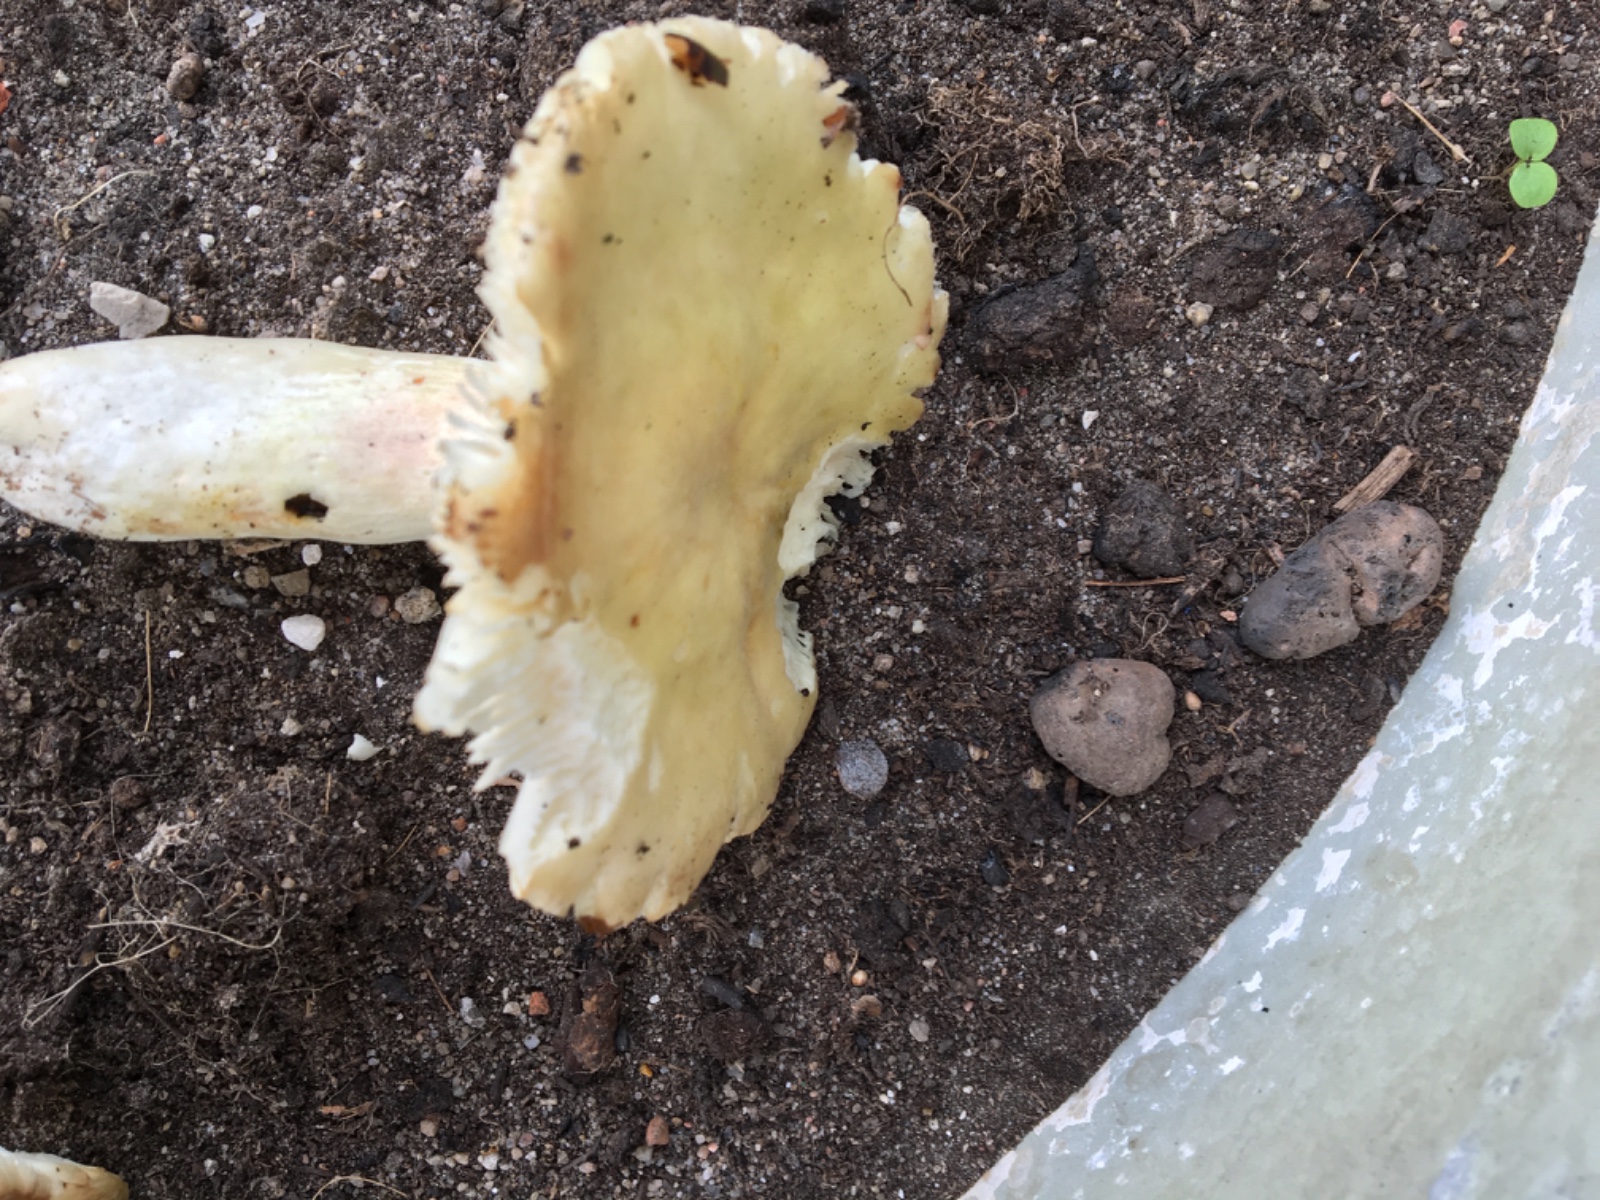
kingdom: Fungi
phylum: Basidiomycota
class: Agaricomycetes
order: Russulales
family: Russulaceae
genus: Russula
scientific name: Russula violeipes
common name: ferskengul skørhat
